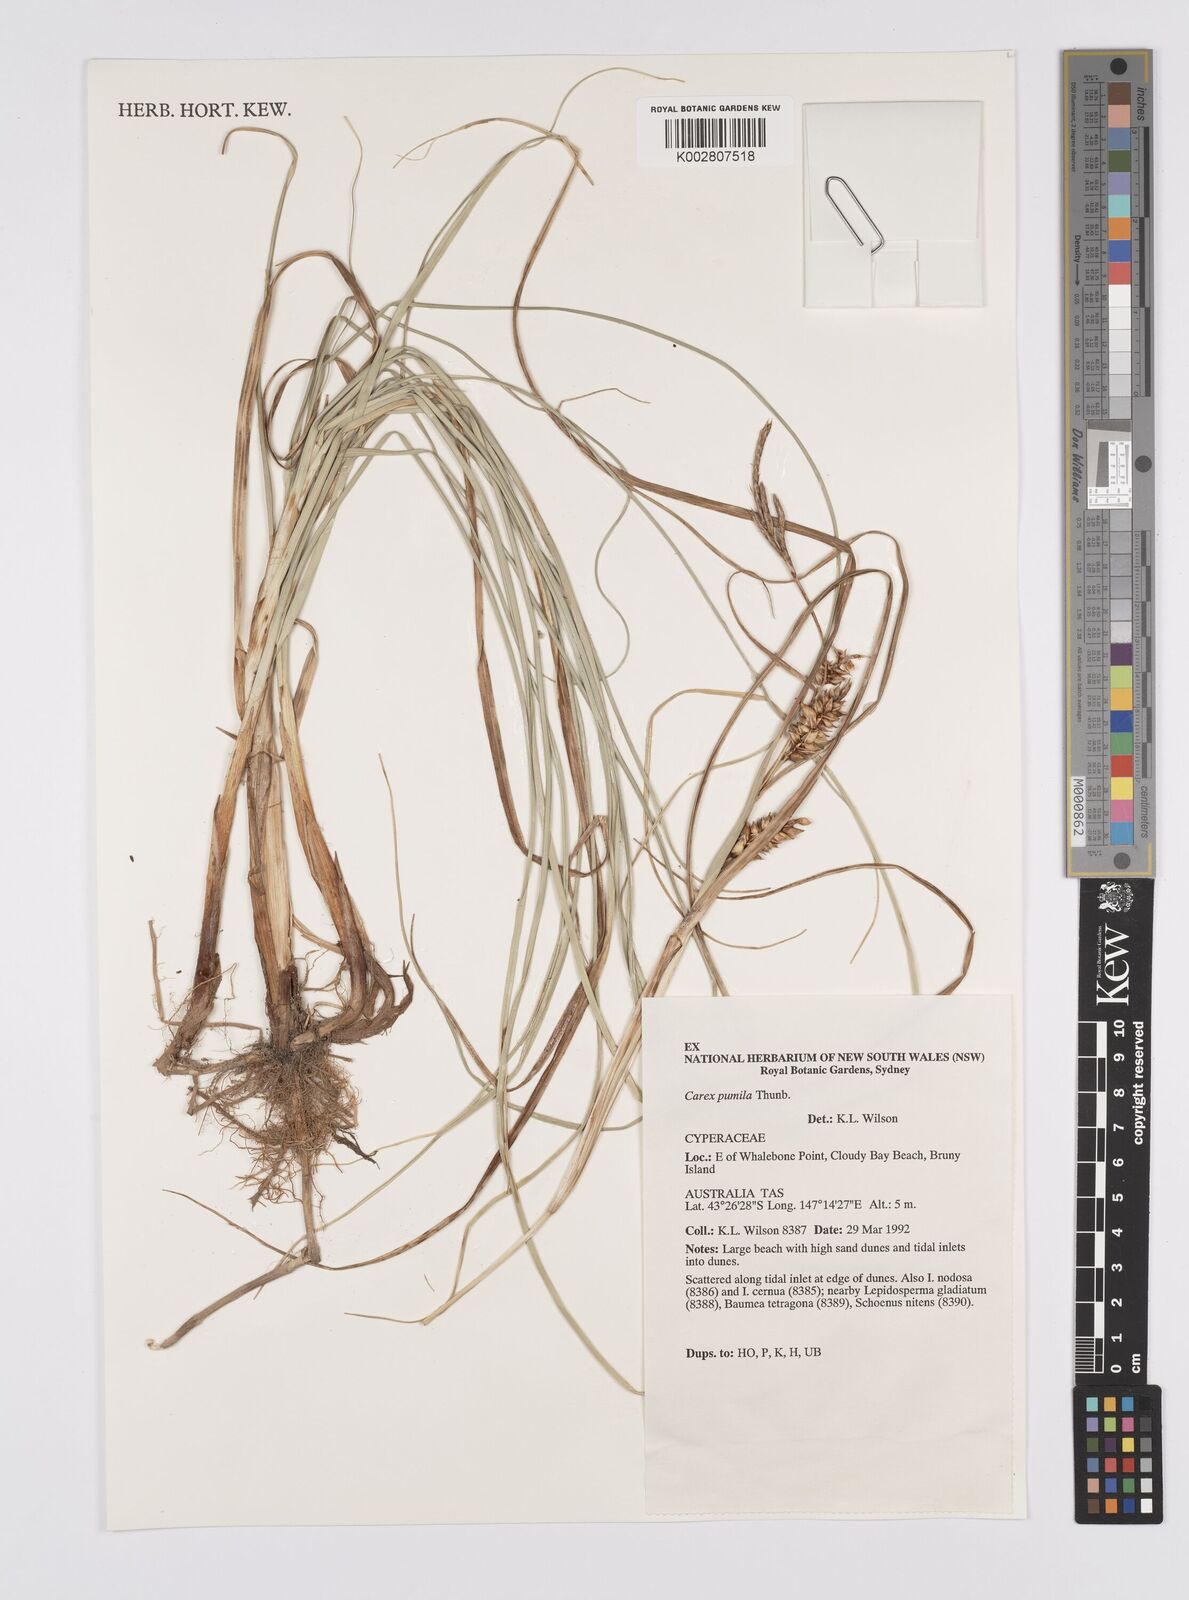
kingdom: Plantae
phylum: Tracheophyta
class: Liliopsida
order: Poales
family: Cyperaceae
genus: Carex
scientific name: Carex pumila
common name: Dwarf sedge
